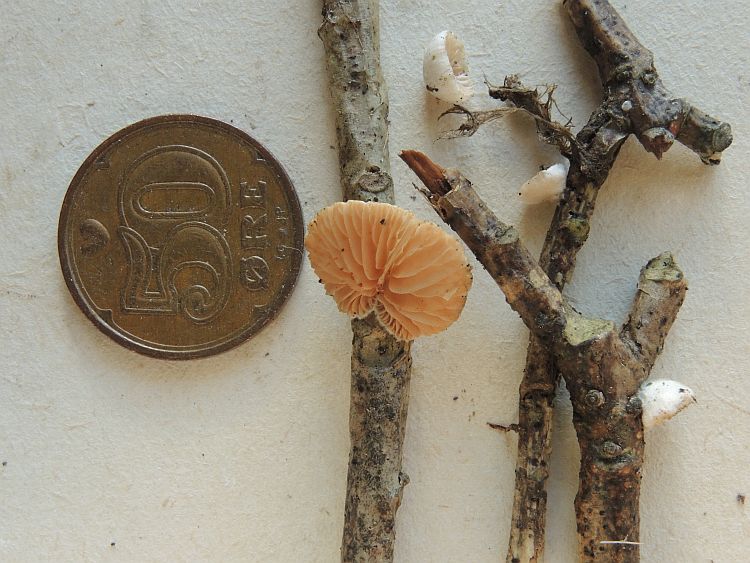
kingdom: Fungi
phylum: Basidiomycota
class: Agaricomycetes
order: Agaricales
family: Crepidotaceae
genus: Crepidotus
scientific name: Crepidotus cesatii
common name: almindelig muslingesvamp
